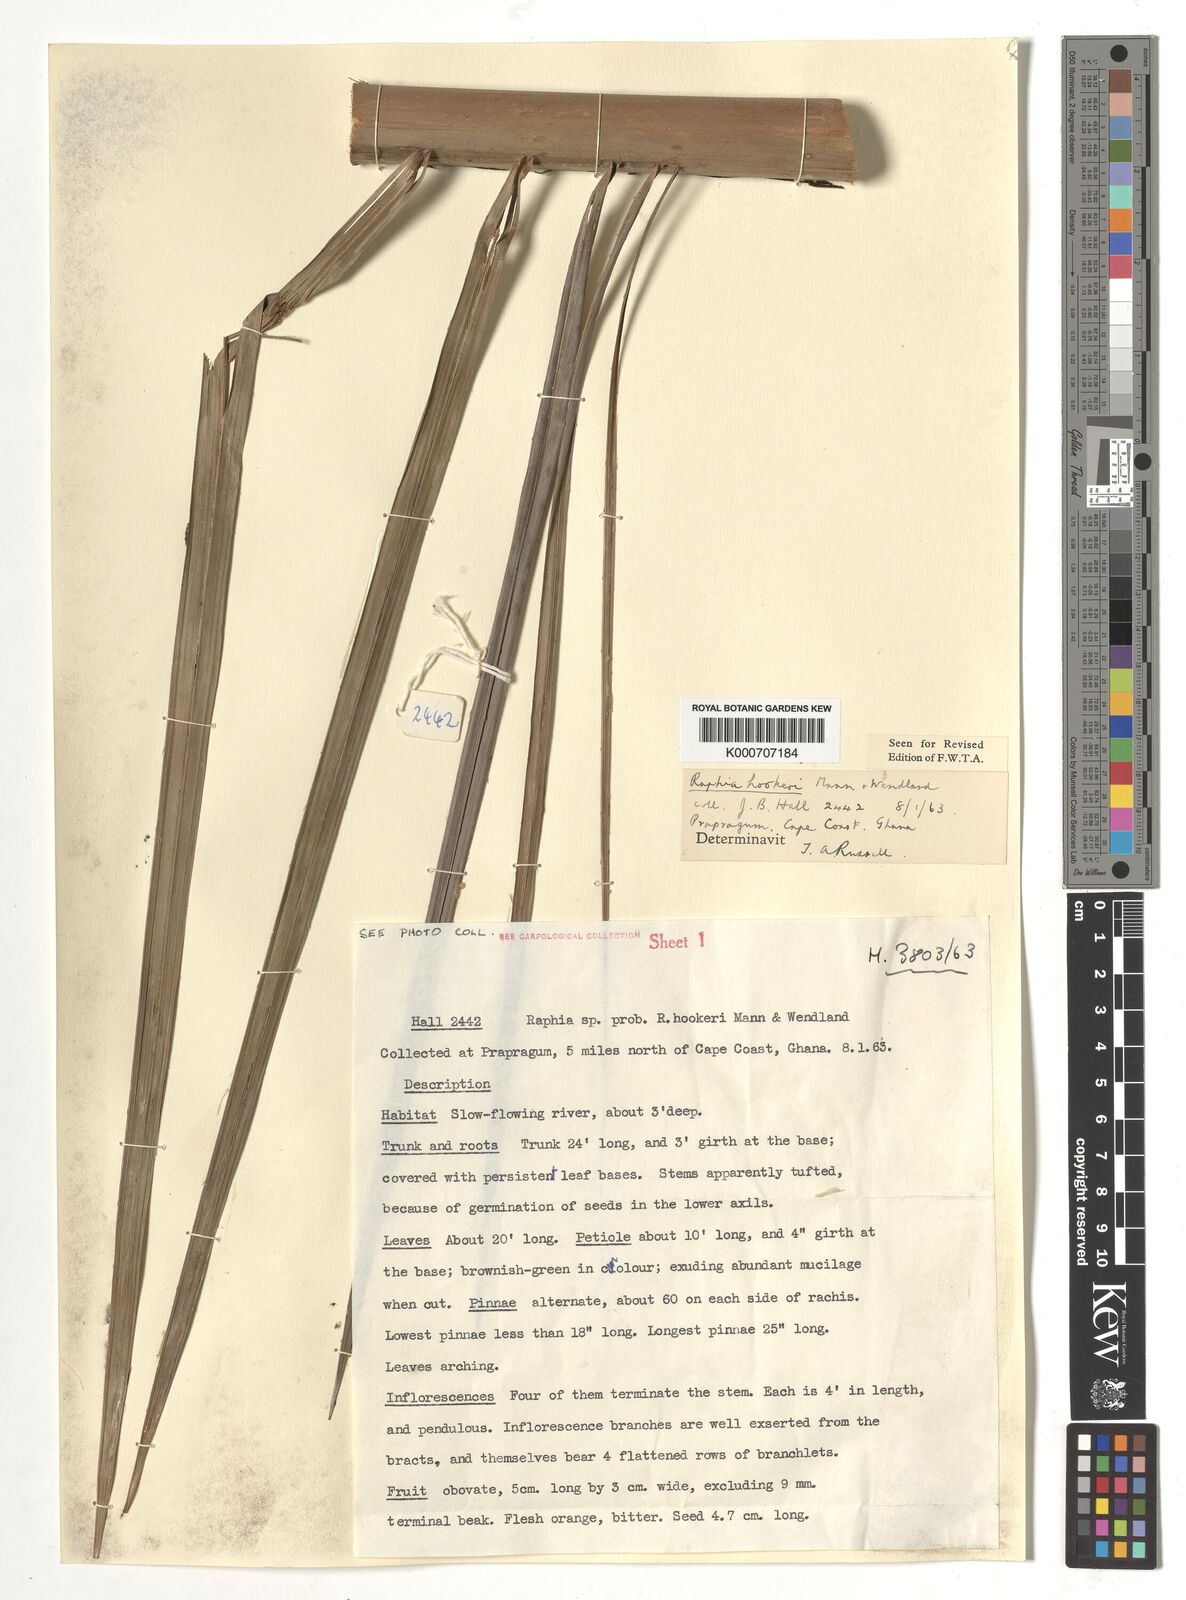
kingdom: Plantae
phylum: Tracheophyta
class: Liliopsida
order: Arecales
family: Arecaceae
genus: Raphia
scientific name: Raphia hookeri
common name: Wine palm
